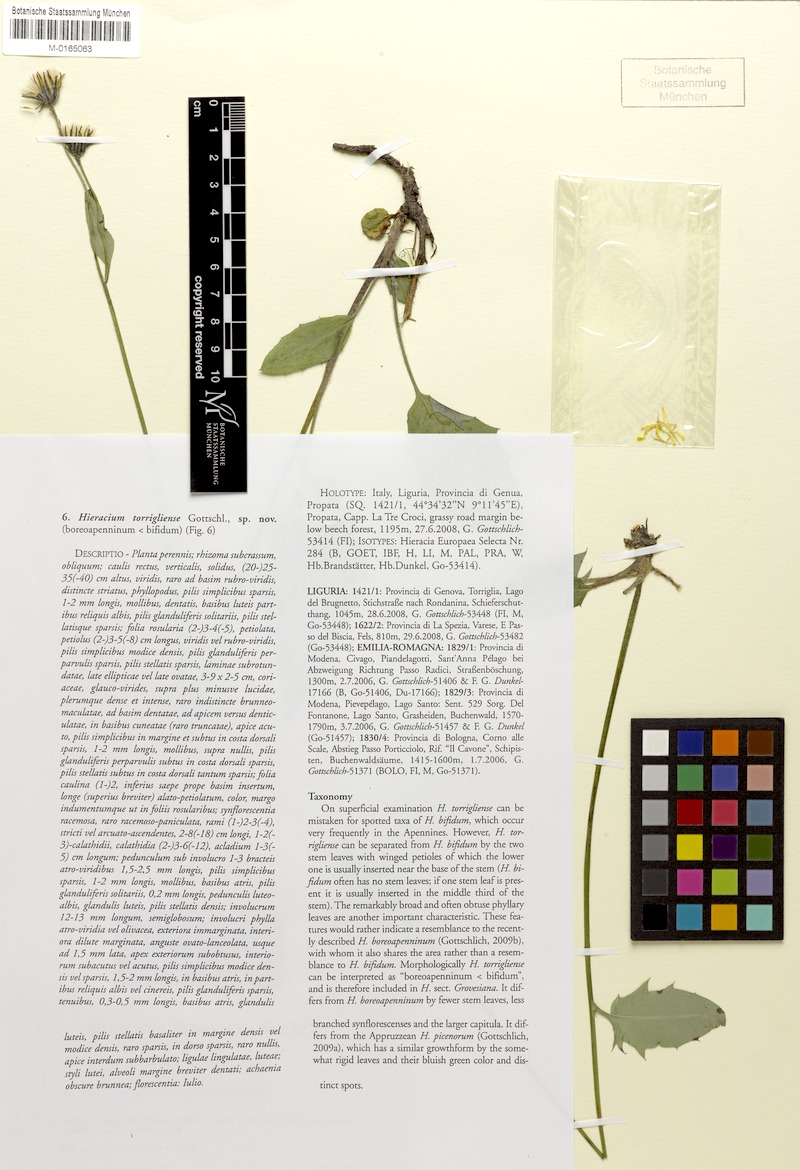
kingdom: Plantae
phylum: Tracheophyta
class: Magnoliopsida
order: Asterales
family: Asteraceae
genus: Hieracium
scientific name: Hieracium torrigliense
